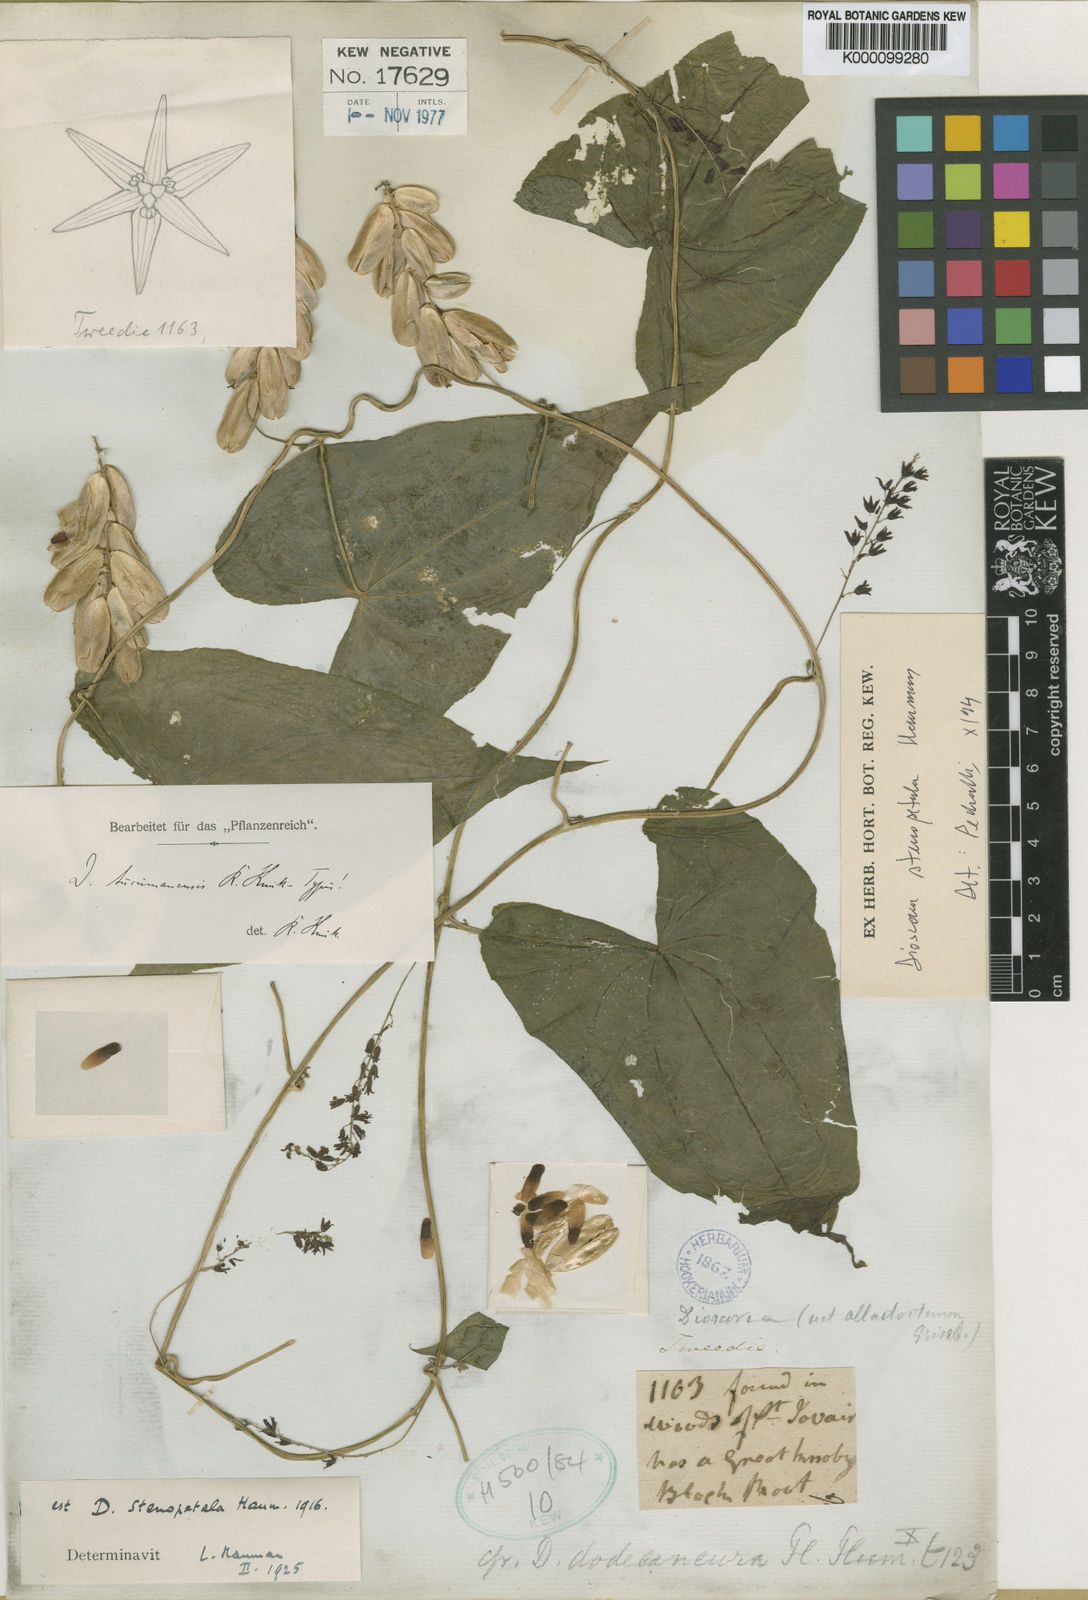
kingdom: Plantae
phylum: Tracheophyta
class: Liliopsida
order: Dioscoreales
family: Dioscoreaceae
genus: Dioscorea
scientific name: Dioscorea stenopetala
